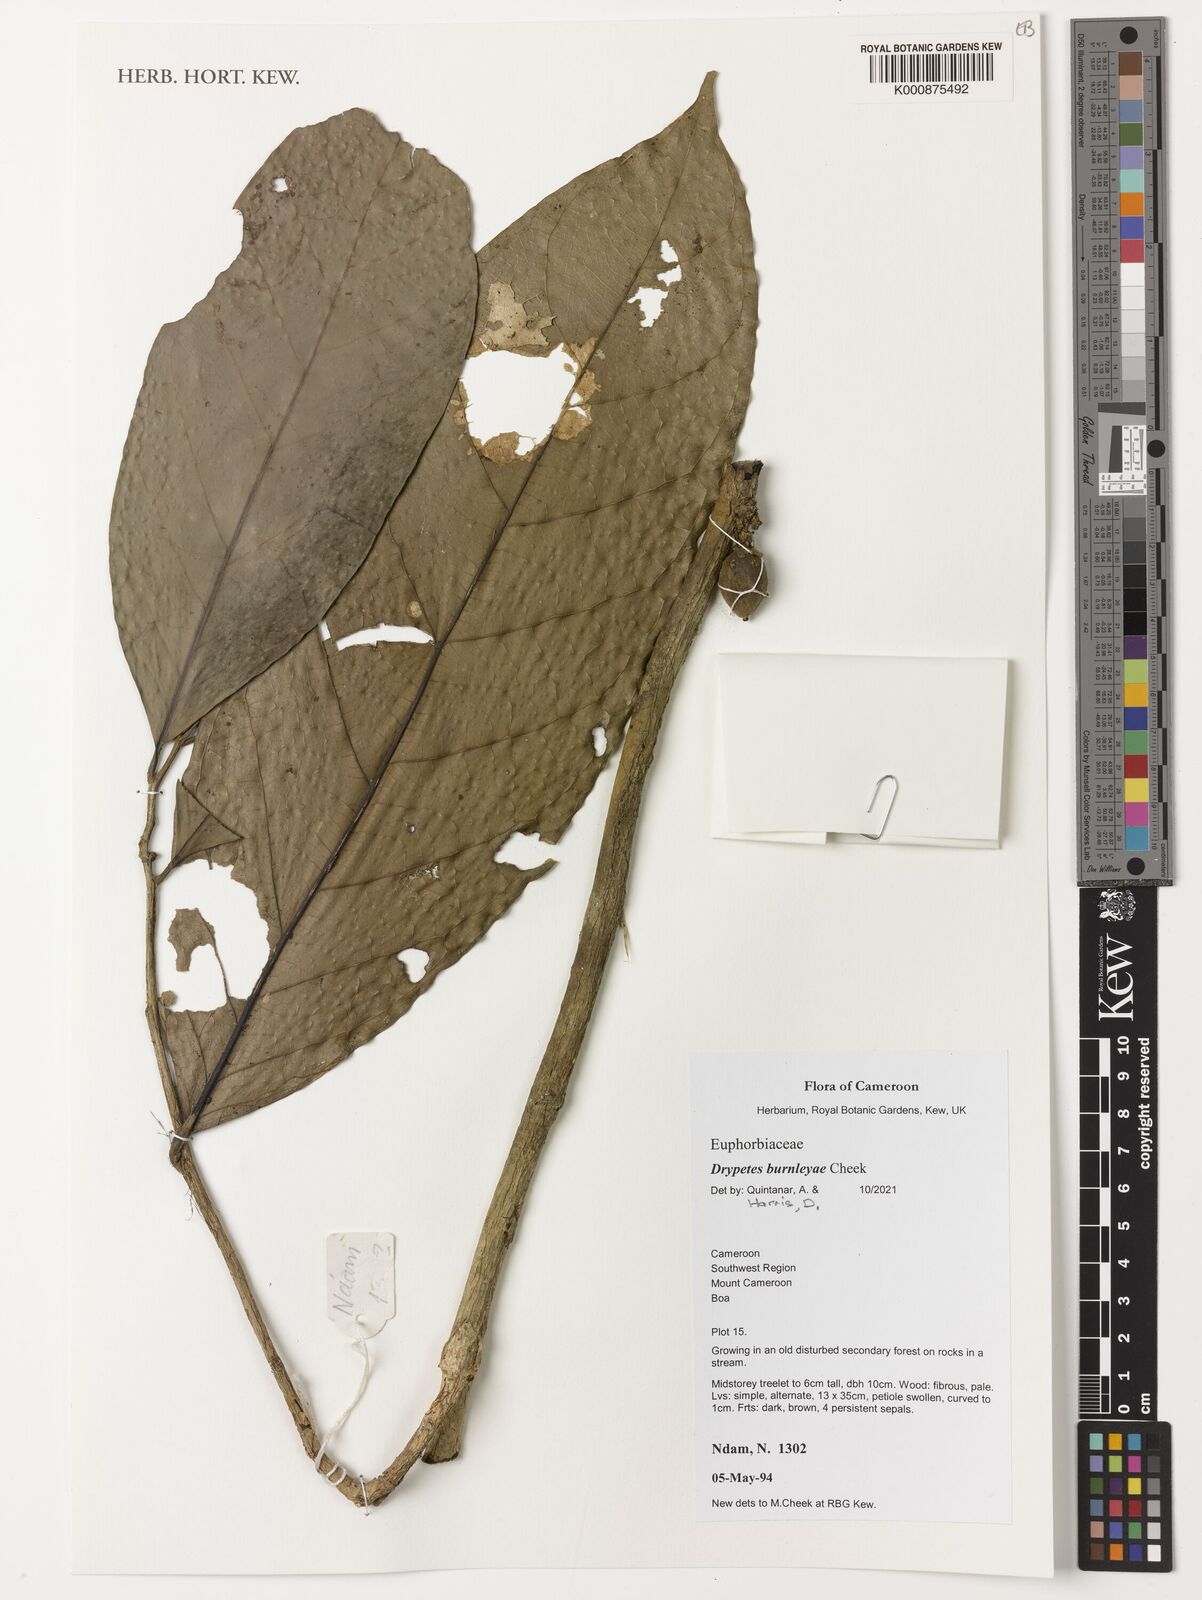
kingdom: Plantae
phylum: Tracheophyta
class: Magnoliopsida
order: Malpighiales
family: Putranjivaceae
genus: Drypetes
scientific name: Drypetes
